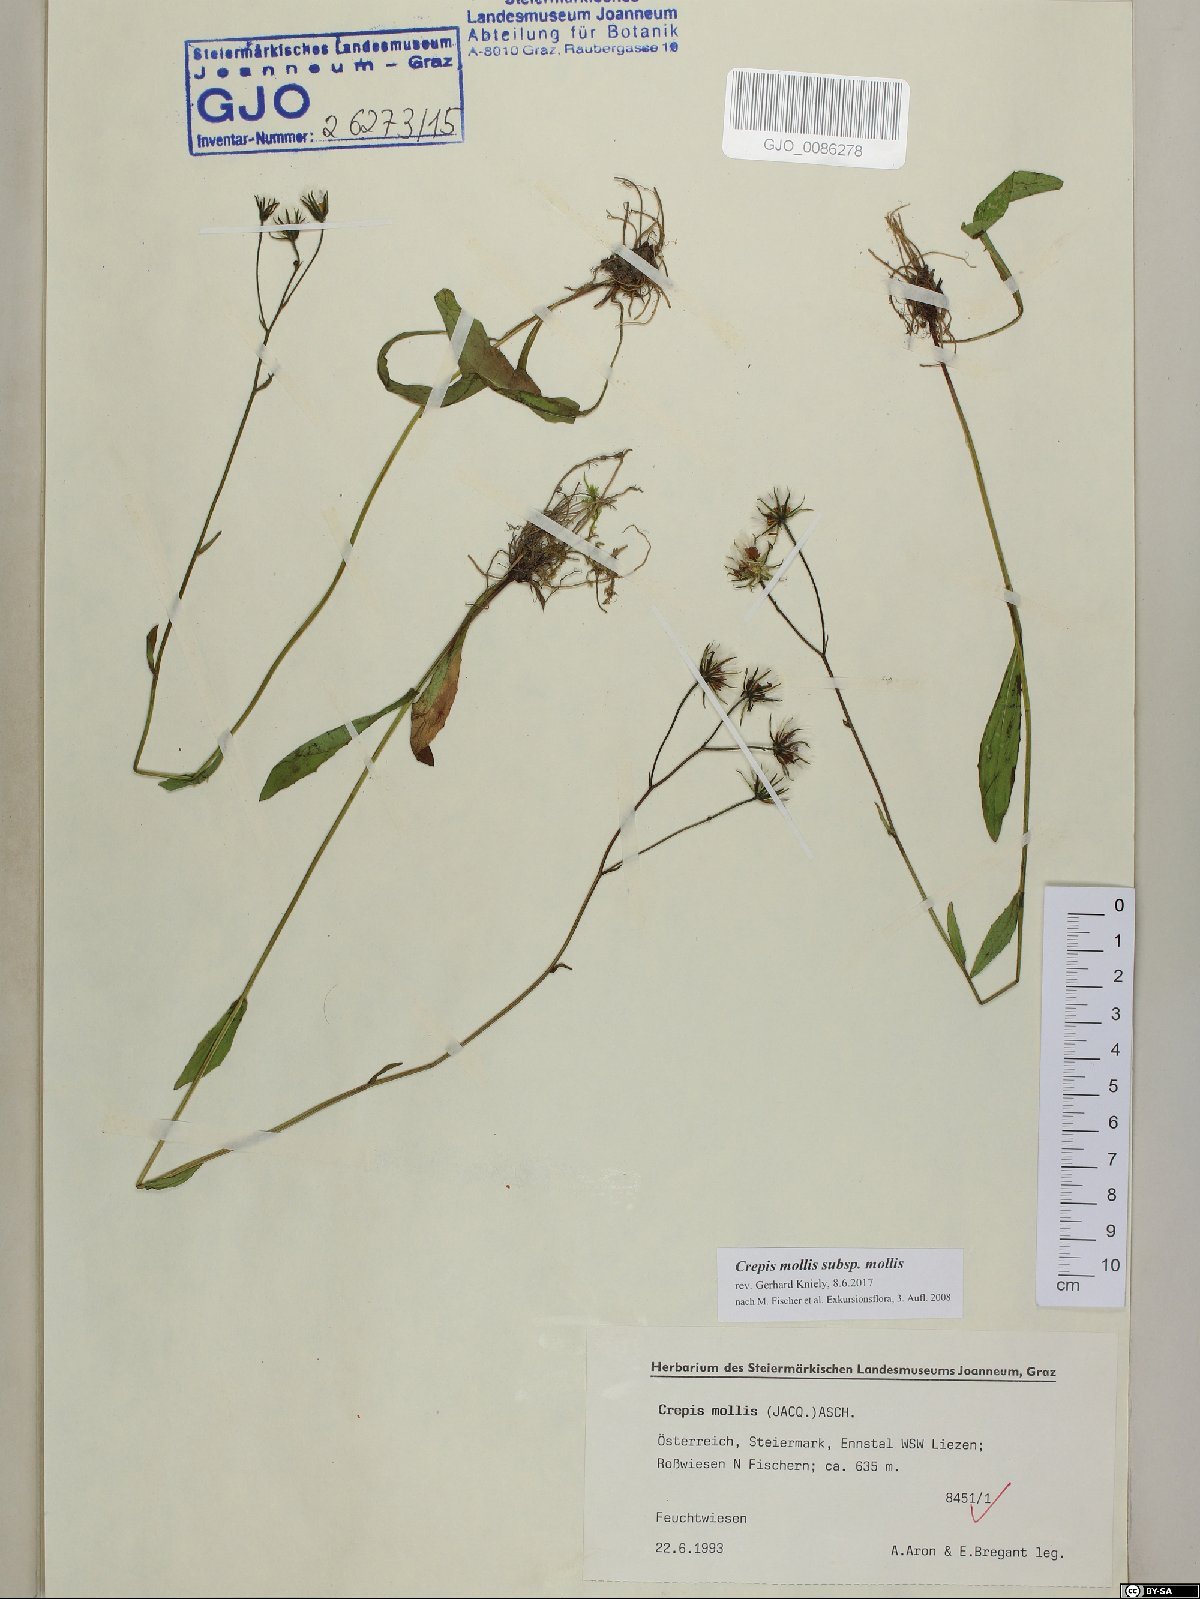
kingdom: Plantae
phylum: Tracheophyta
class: Magnoliopsida
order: Asterales
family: Asteraceae
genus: Crepis
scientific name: Crepis mollis
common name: Northern hawk's-beard
